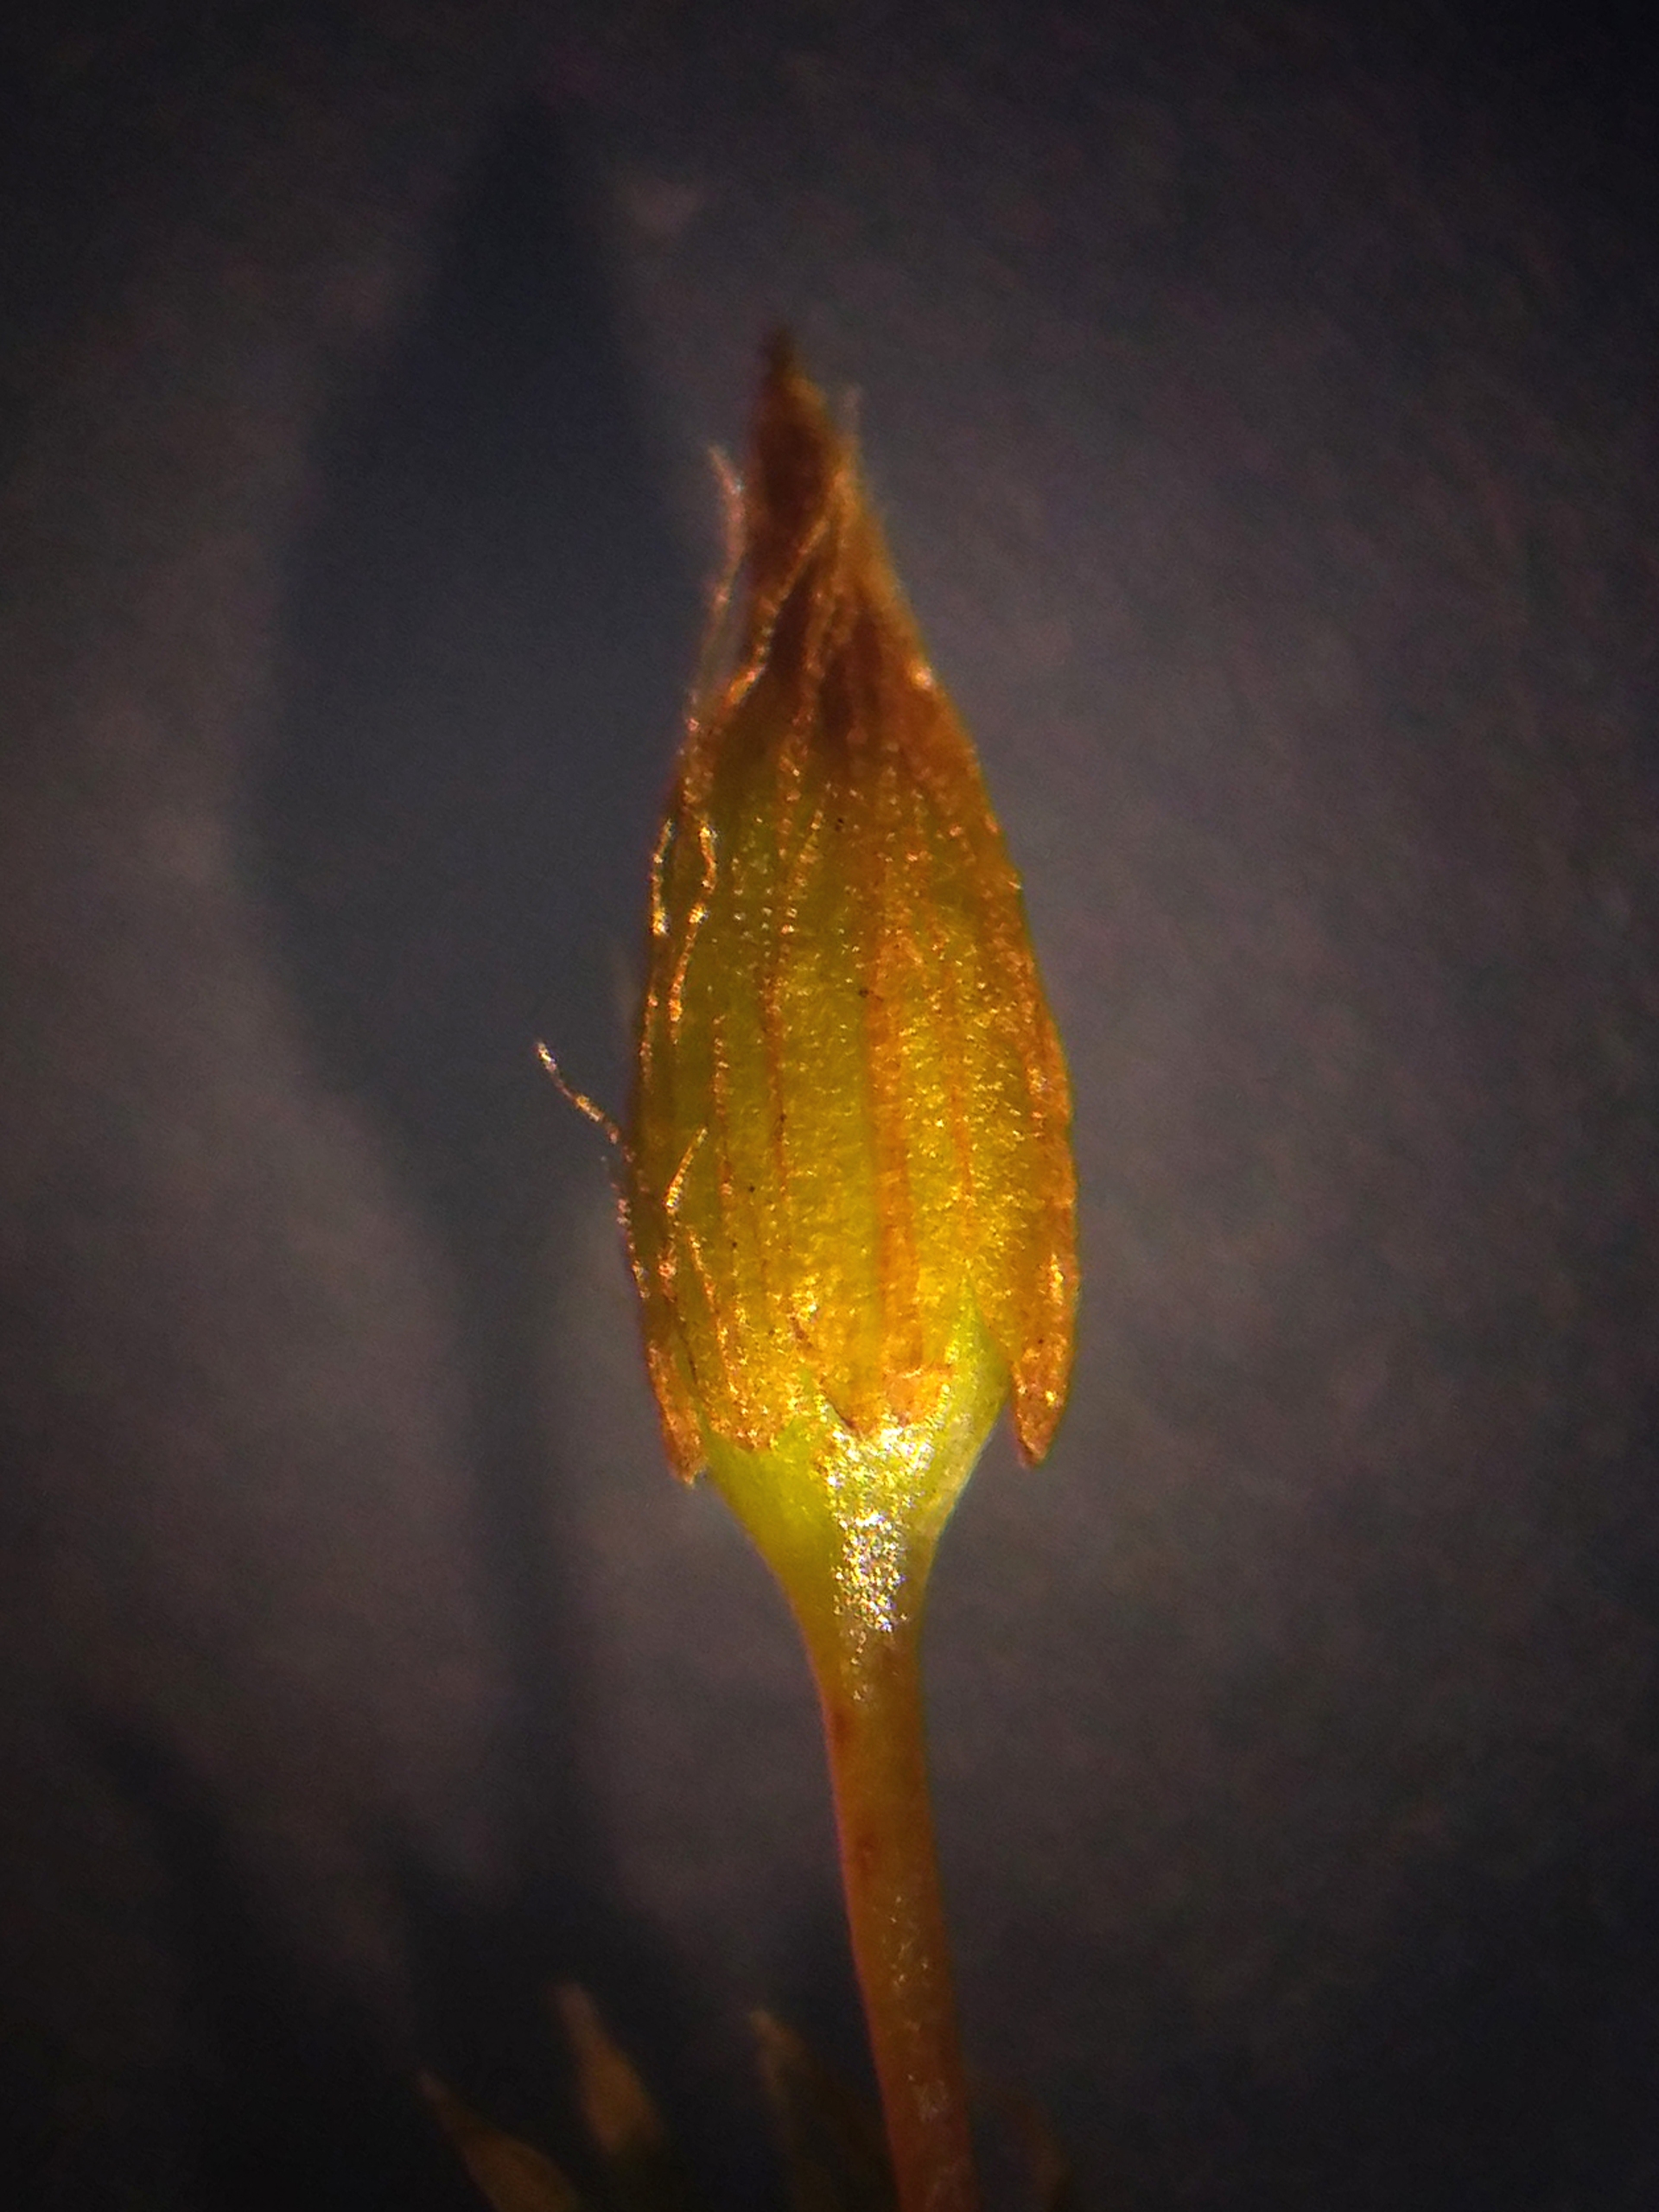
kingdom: Plantae
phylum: Bryophyta
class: Bryopsida
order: Orthotrichales
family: Orthotrichaceae
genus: Orthotrichum
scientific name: Orthotrichum anomalum
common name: Mørk furehætte
